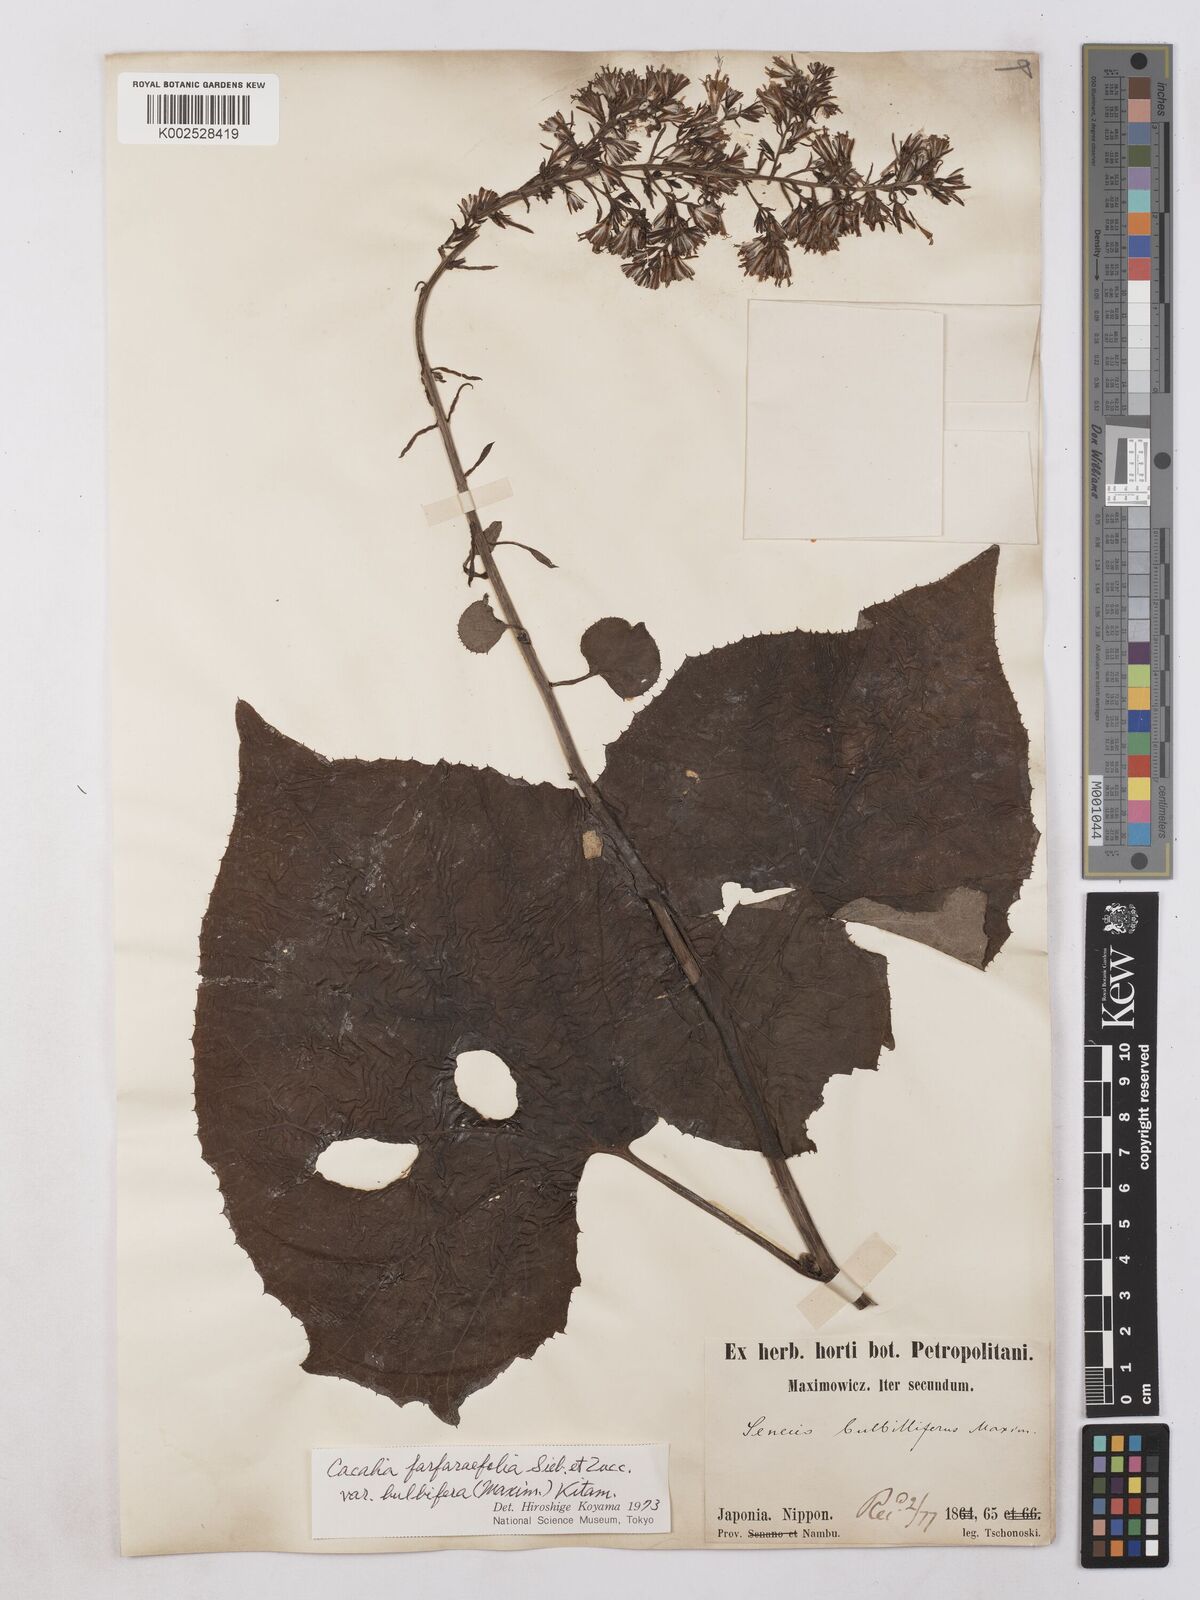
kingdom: Plantae
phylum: Tracheophyta
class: Magnoliopsida
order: Asterales
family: Asteraceae
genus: Parasenecio
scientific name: Parasenecio bulbiferoides
